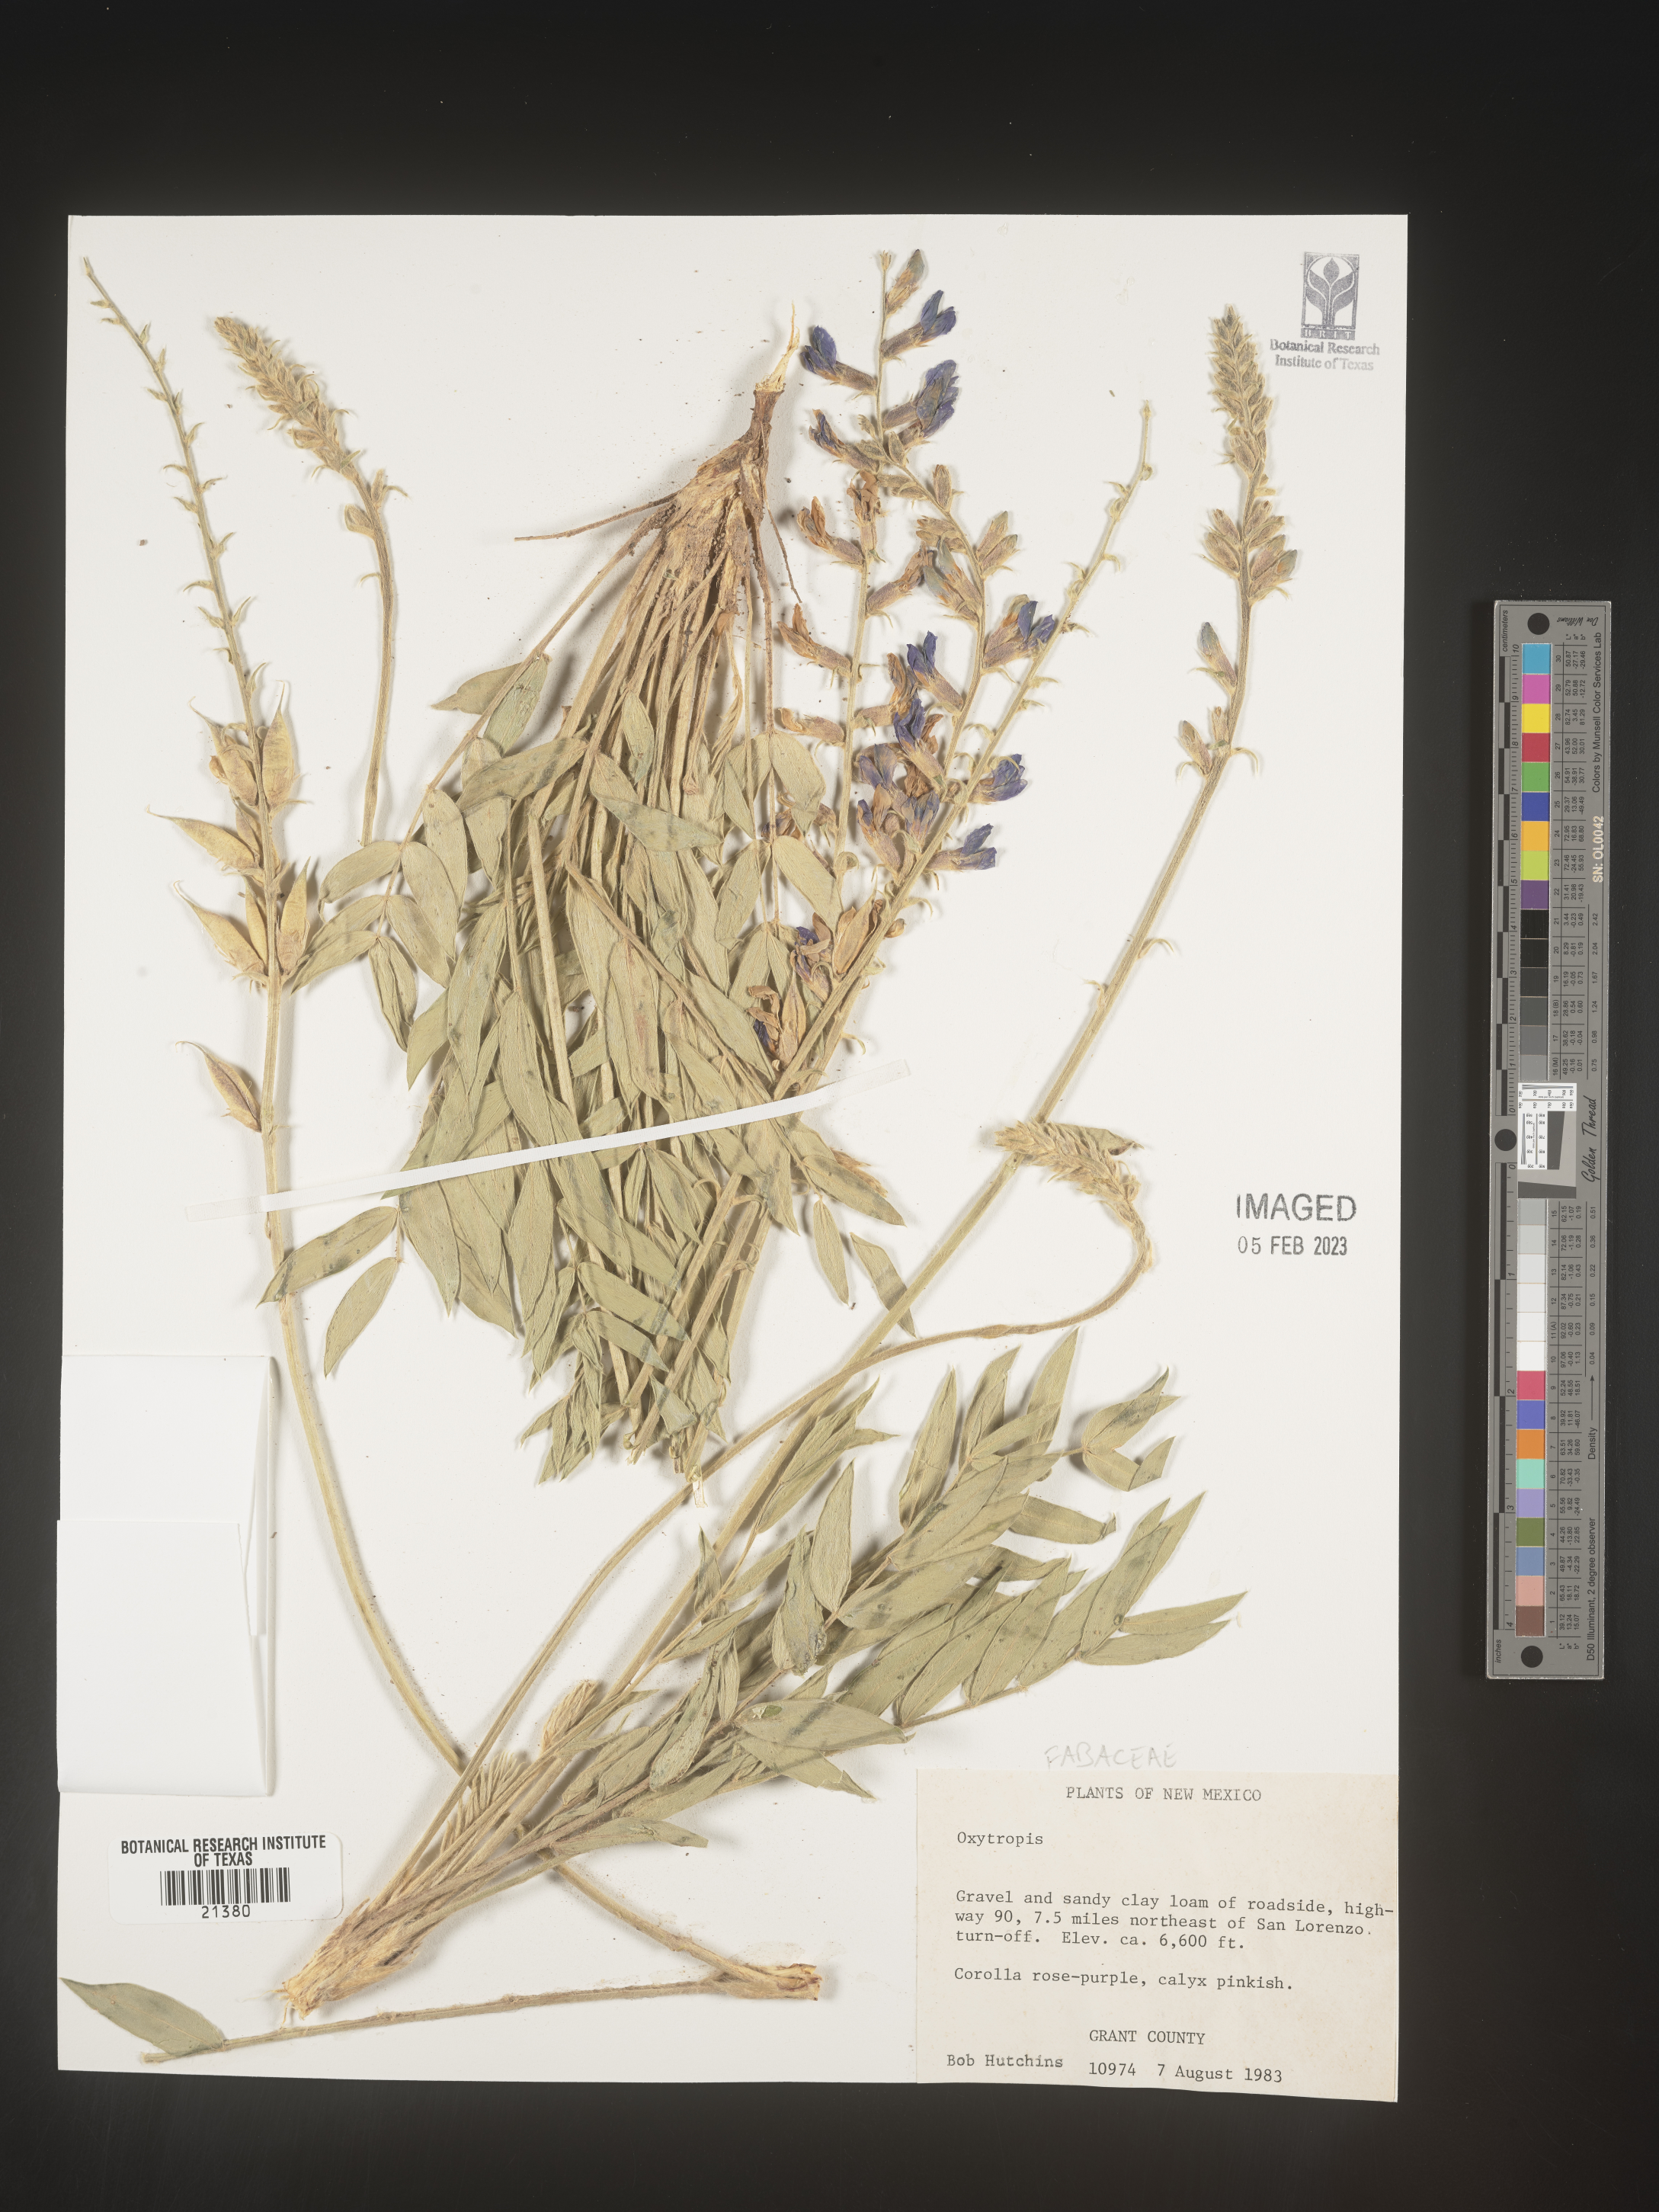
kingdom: Plantae
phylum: Tracheophyta
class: Magnoliopsida
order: Fabales
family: Fabaceae
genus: Oxytropis
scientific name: Oxytropis
